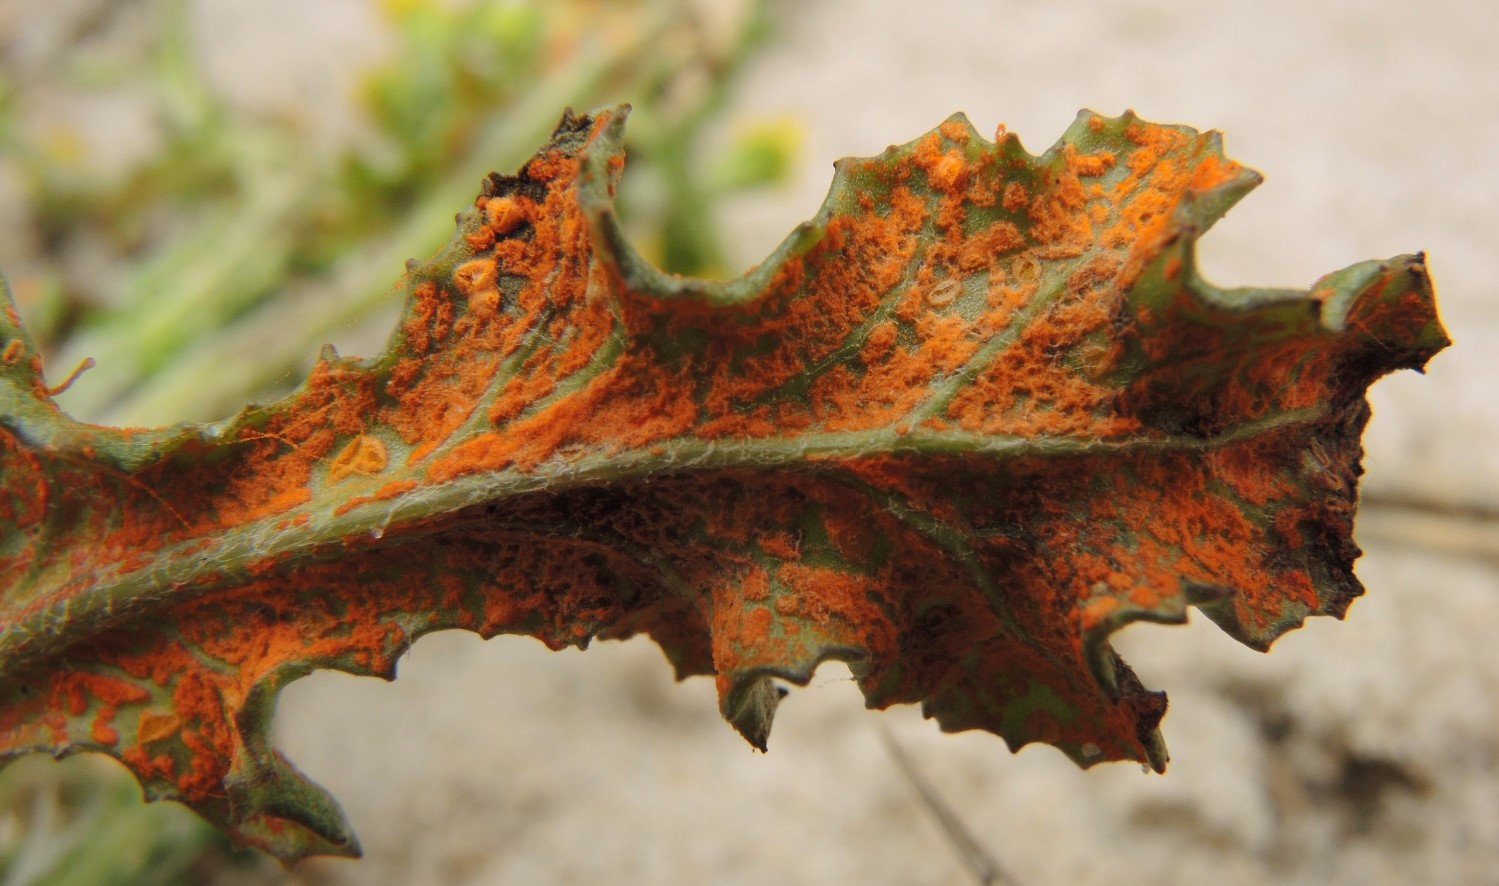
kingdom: Fungi
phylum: Basidiomycota
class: Pucciniomycetes
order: Pucciniales
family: Coleosporiaceae
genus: Coleosporium
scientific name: Coleosporium tussilaginis
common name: almindelig fyrrenålerust
